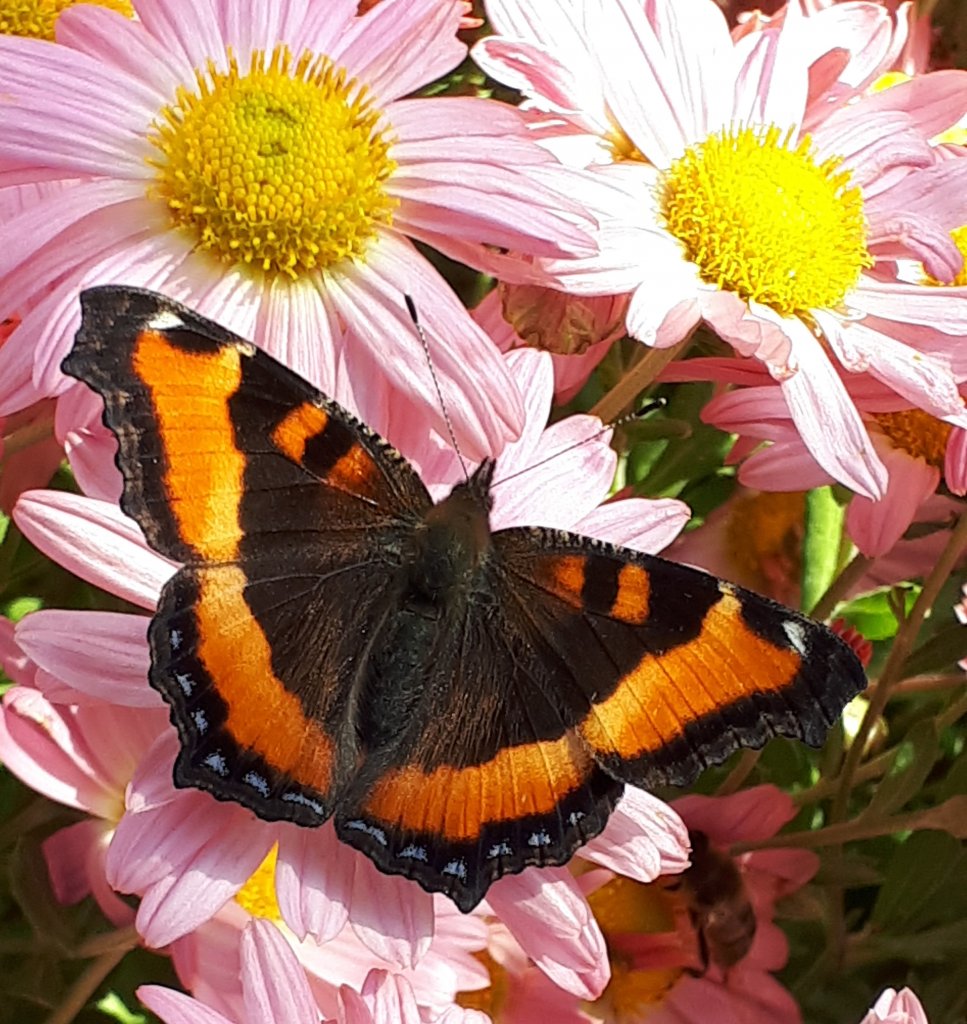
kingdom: Animalia
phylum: Arthropoda
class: Insecta
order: Lepidoptera
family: Nymphalidae
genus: Aglais
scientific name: Aglais milberti
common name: Milbert's Tortoiseshell
